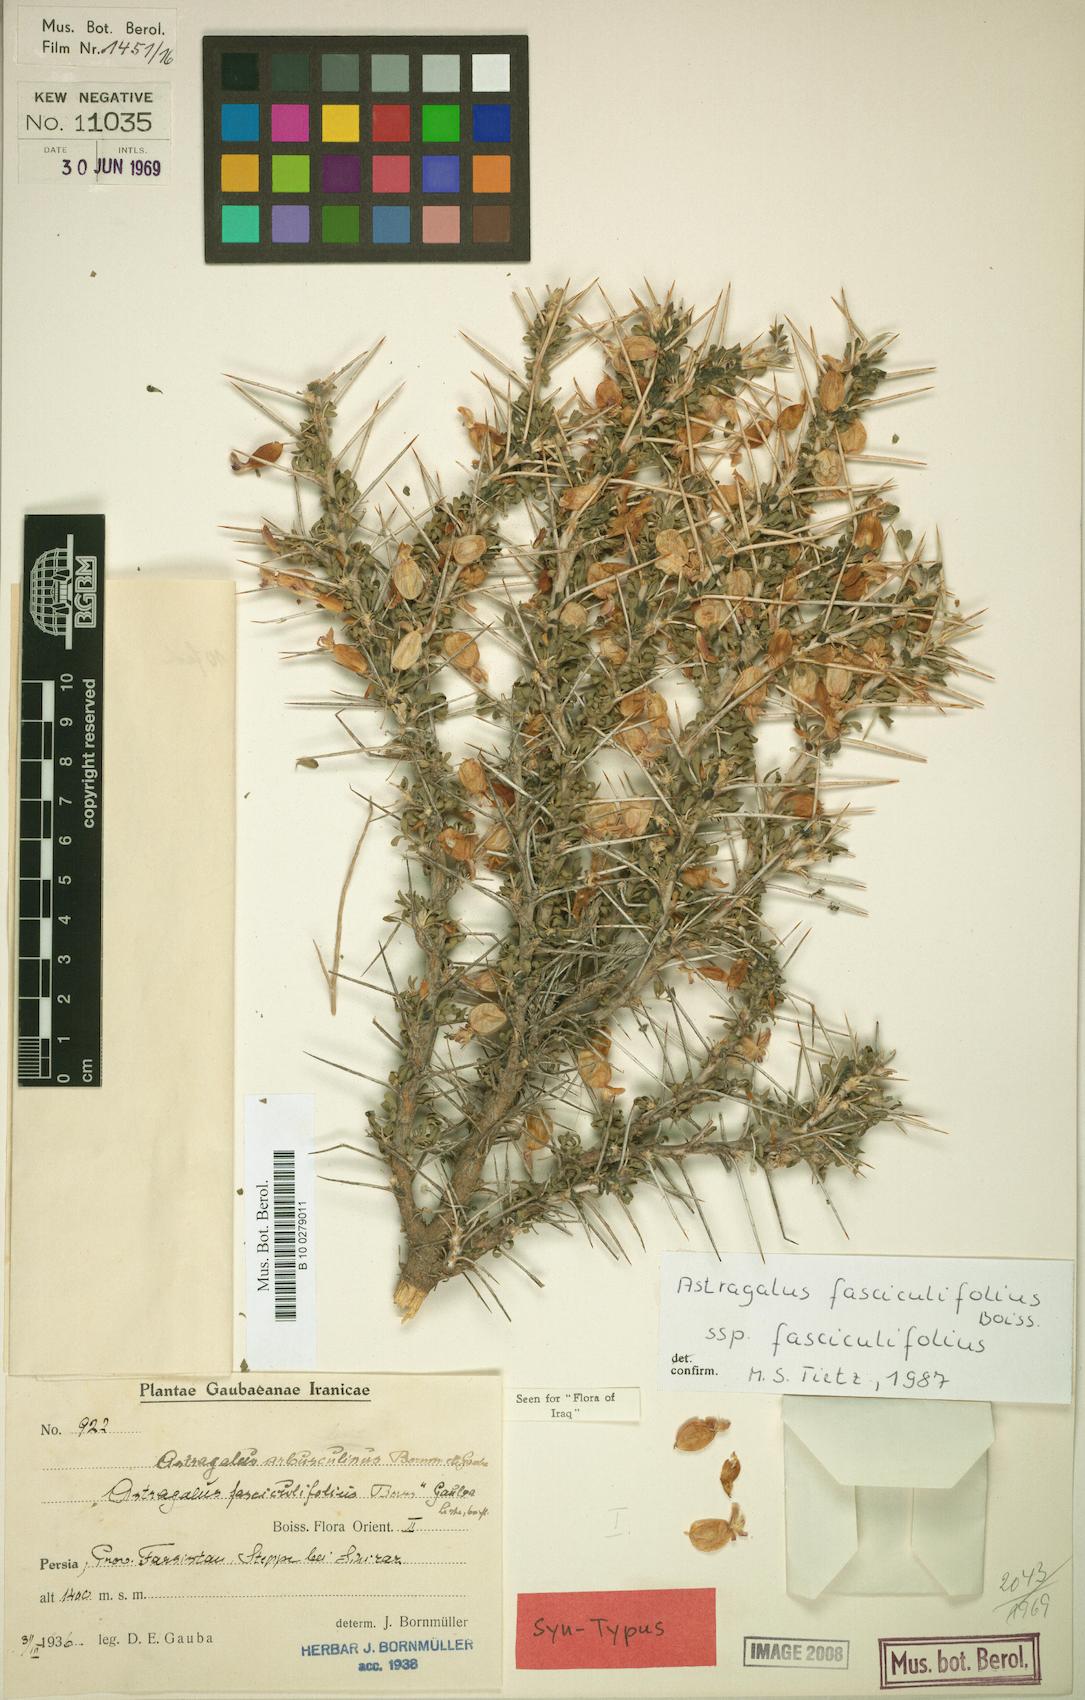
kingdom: Plantae
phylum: Tracheophyta
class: Magnoliopsida
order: Fabales
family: Fabaceae
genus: Astragalus
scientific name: Astragalus fasciculifolius
